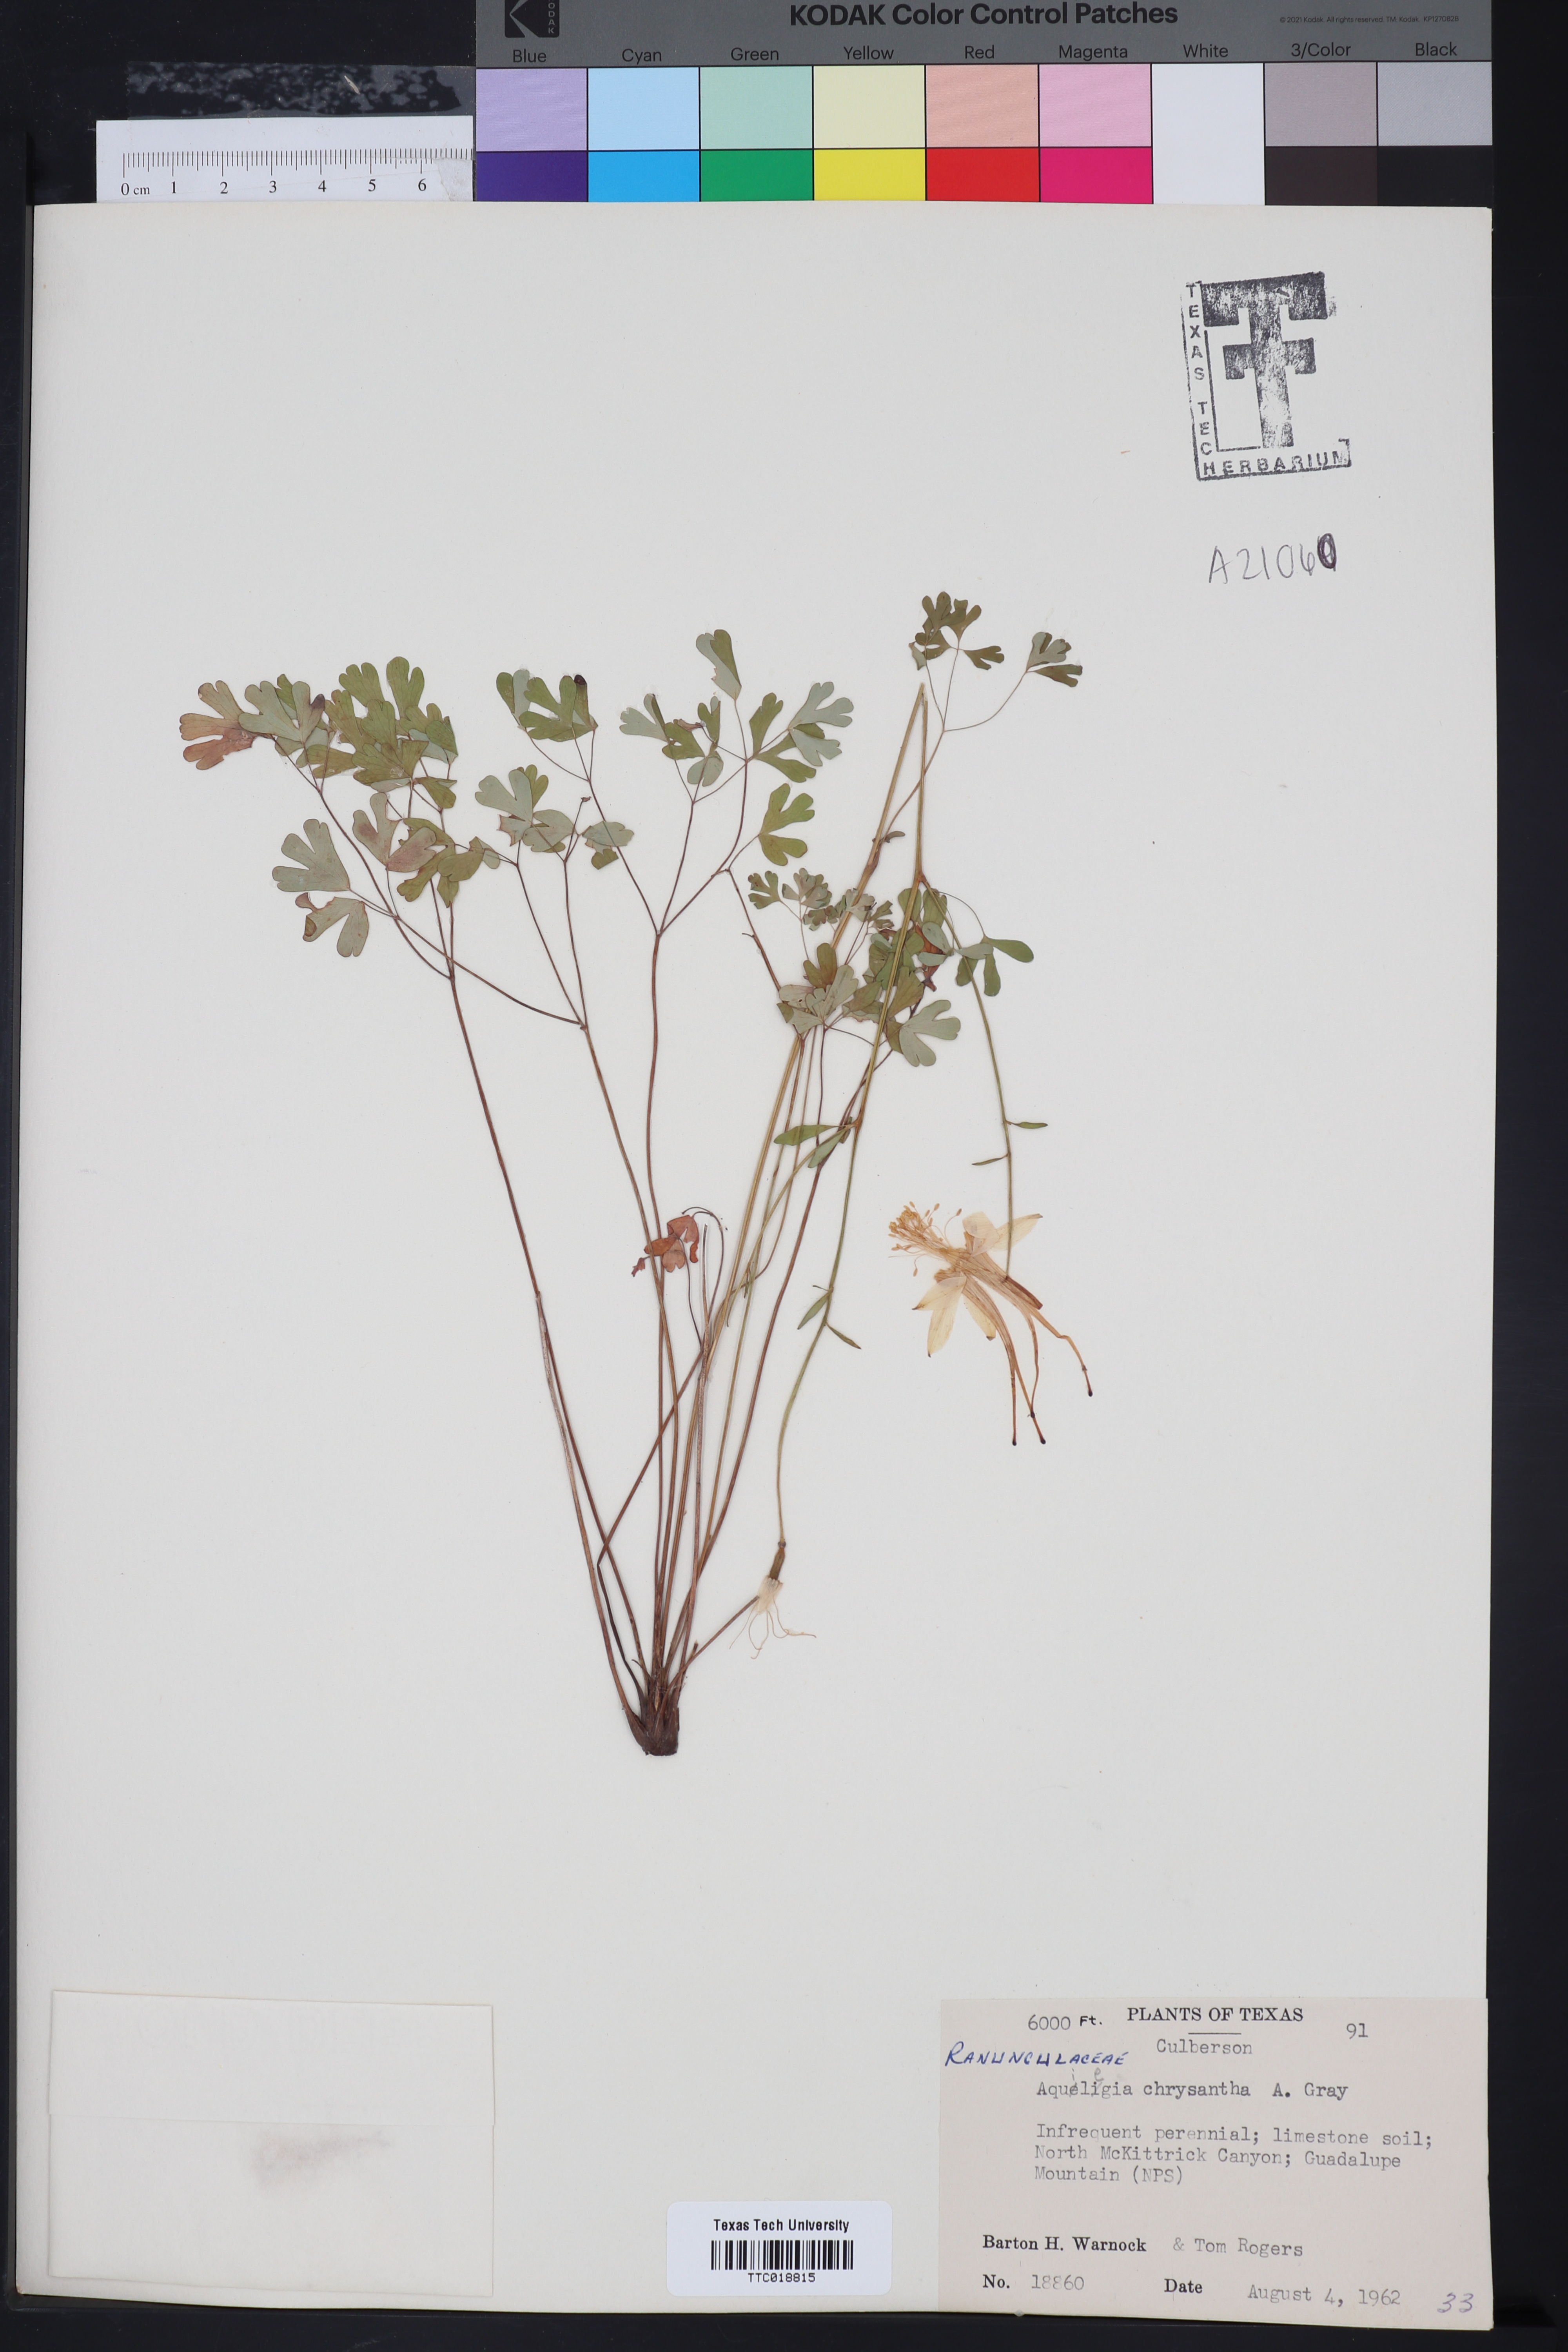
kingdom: Plantae
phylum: Tracheophyta
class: Magnoliopsida
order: Ranunculales
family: Ranunculaceae
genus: Aquilegia
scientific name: Aquilegia chrysantha
